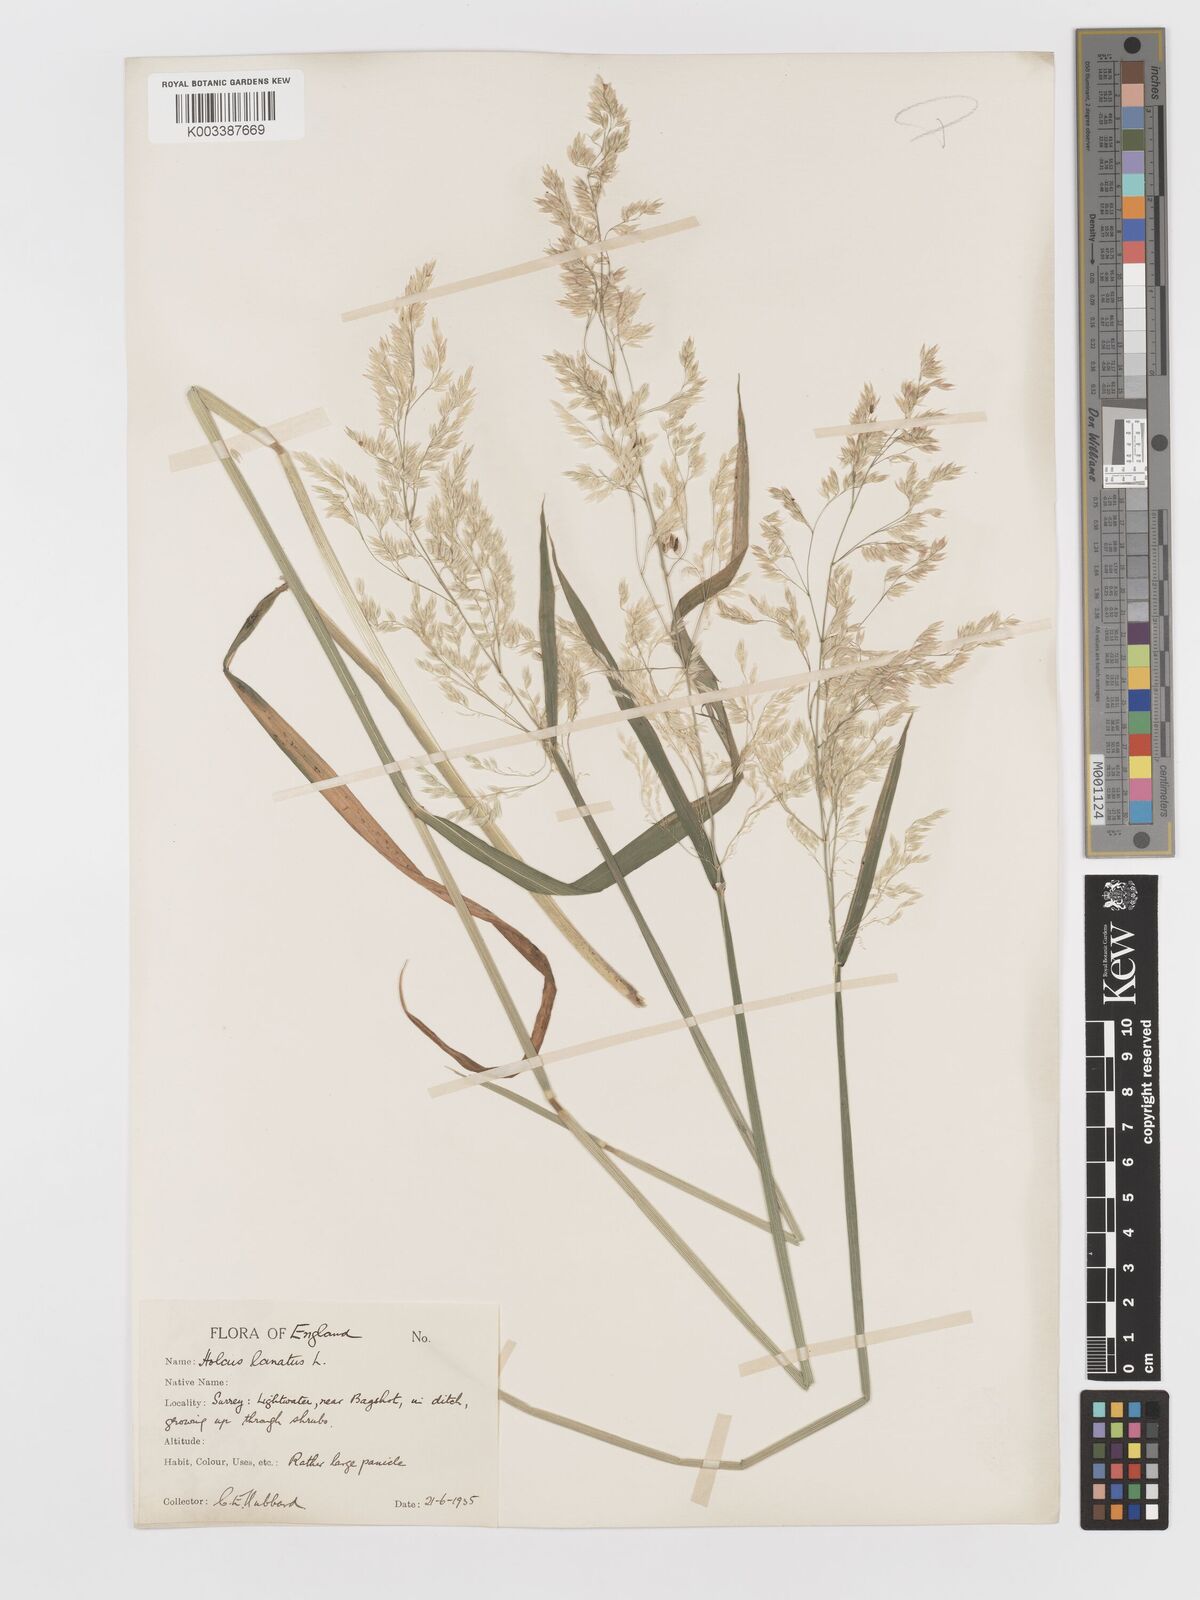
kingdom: Plantae
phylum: Tracheophyta
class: Liliopsida
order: Poales
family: Poaceae
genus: Holcus
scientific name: Holcus lanatus
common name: Yorkshire-fog
